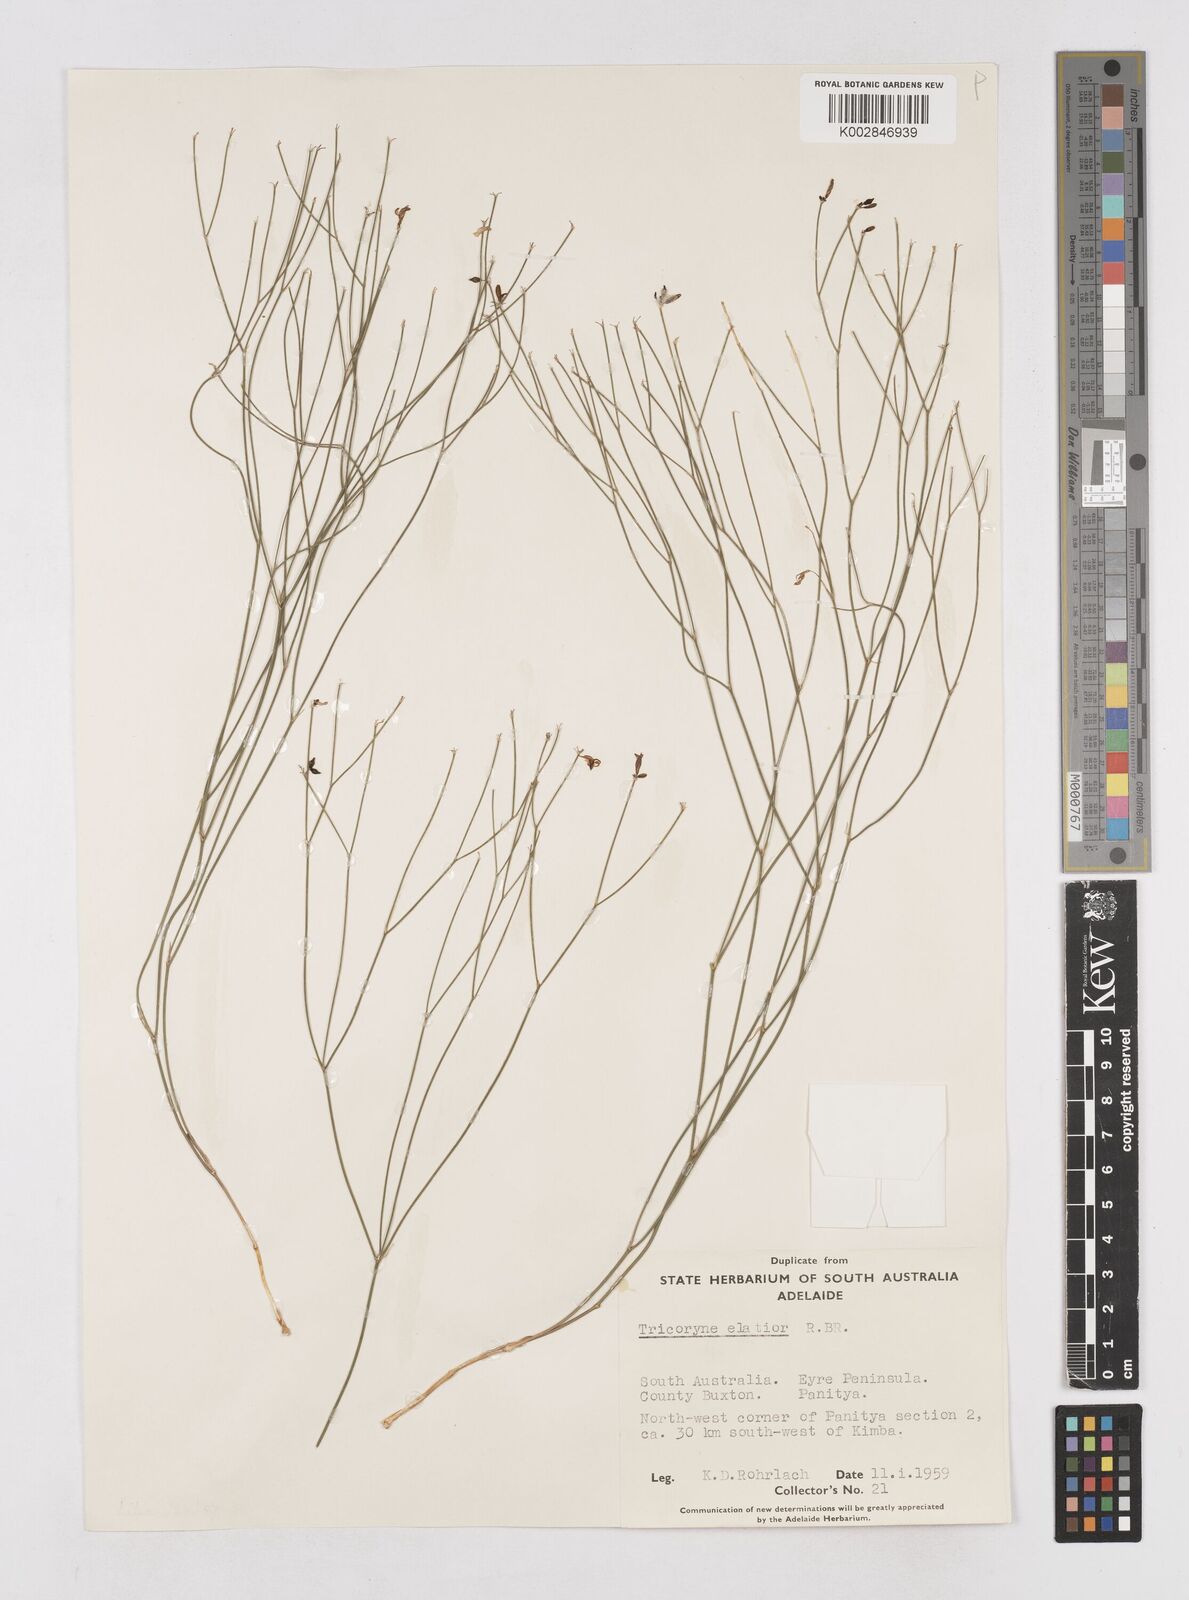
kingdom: Plantae
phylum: Tracheophyta
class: Liliopsida
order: Asparagales
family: Asphodelaceae
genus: Tricoryne
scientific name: Tricoryne elatior
